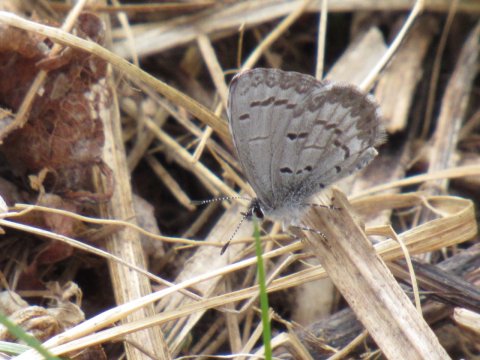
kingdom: Animalia
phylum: Arthropoda
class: Insecta
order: Lepidoptera
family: Lycaenidae
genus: Celastrina
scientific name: Celastrina lucia
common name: Northern Spring Azure
